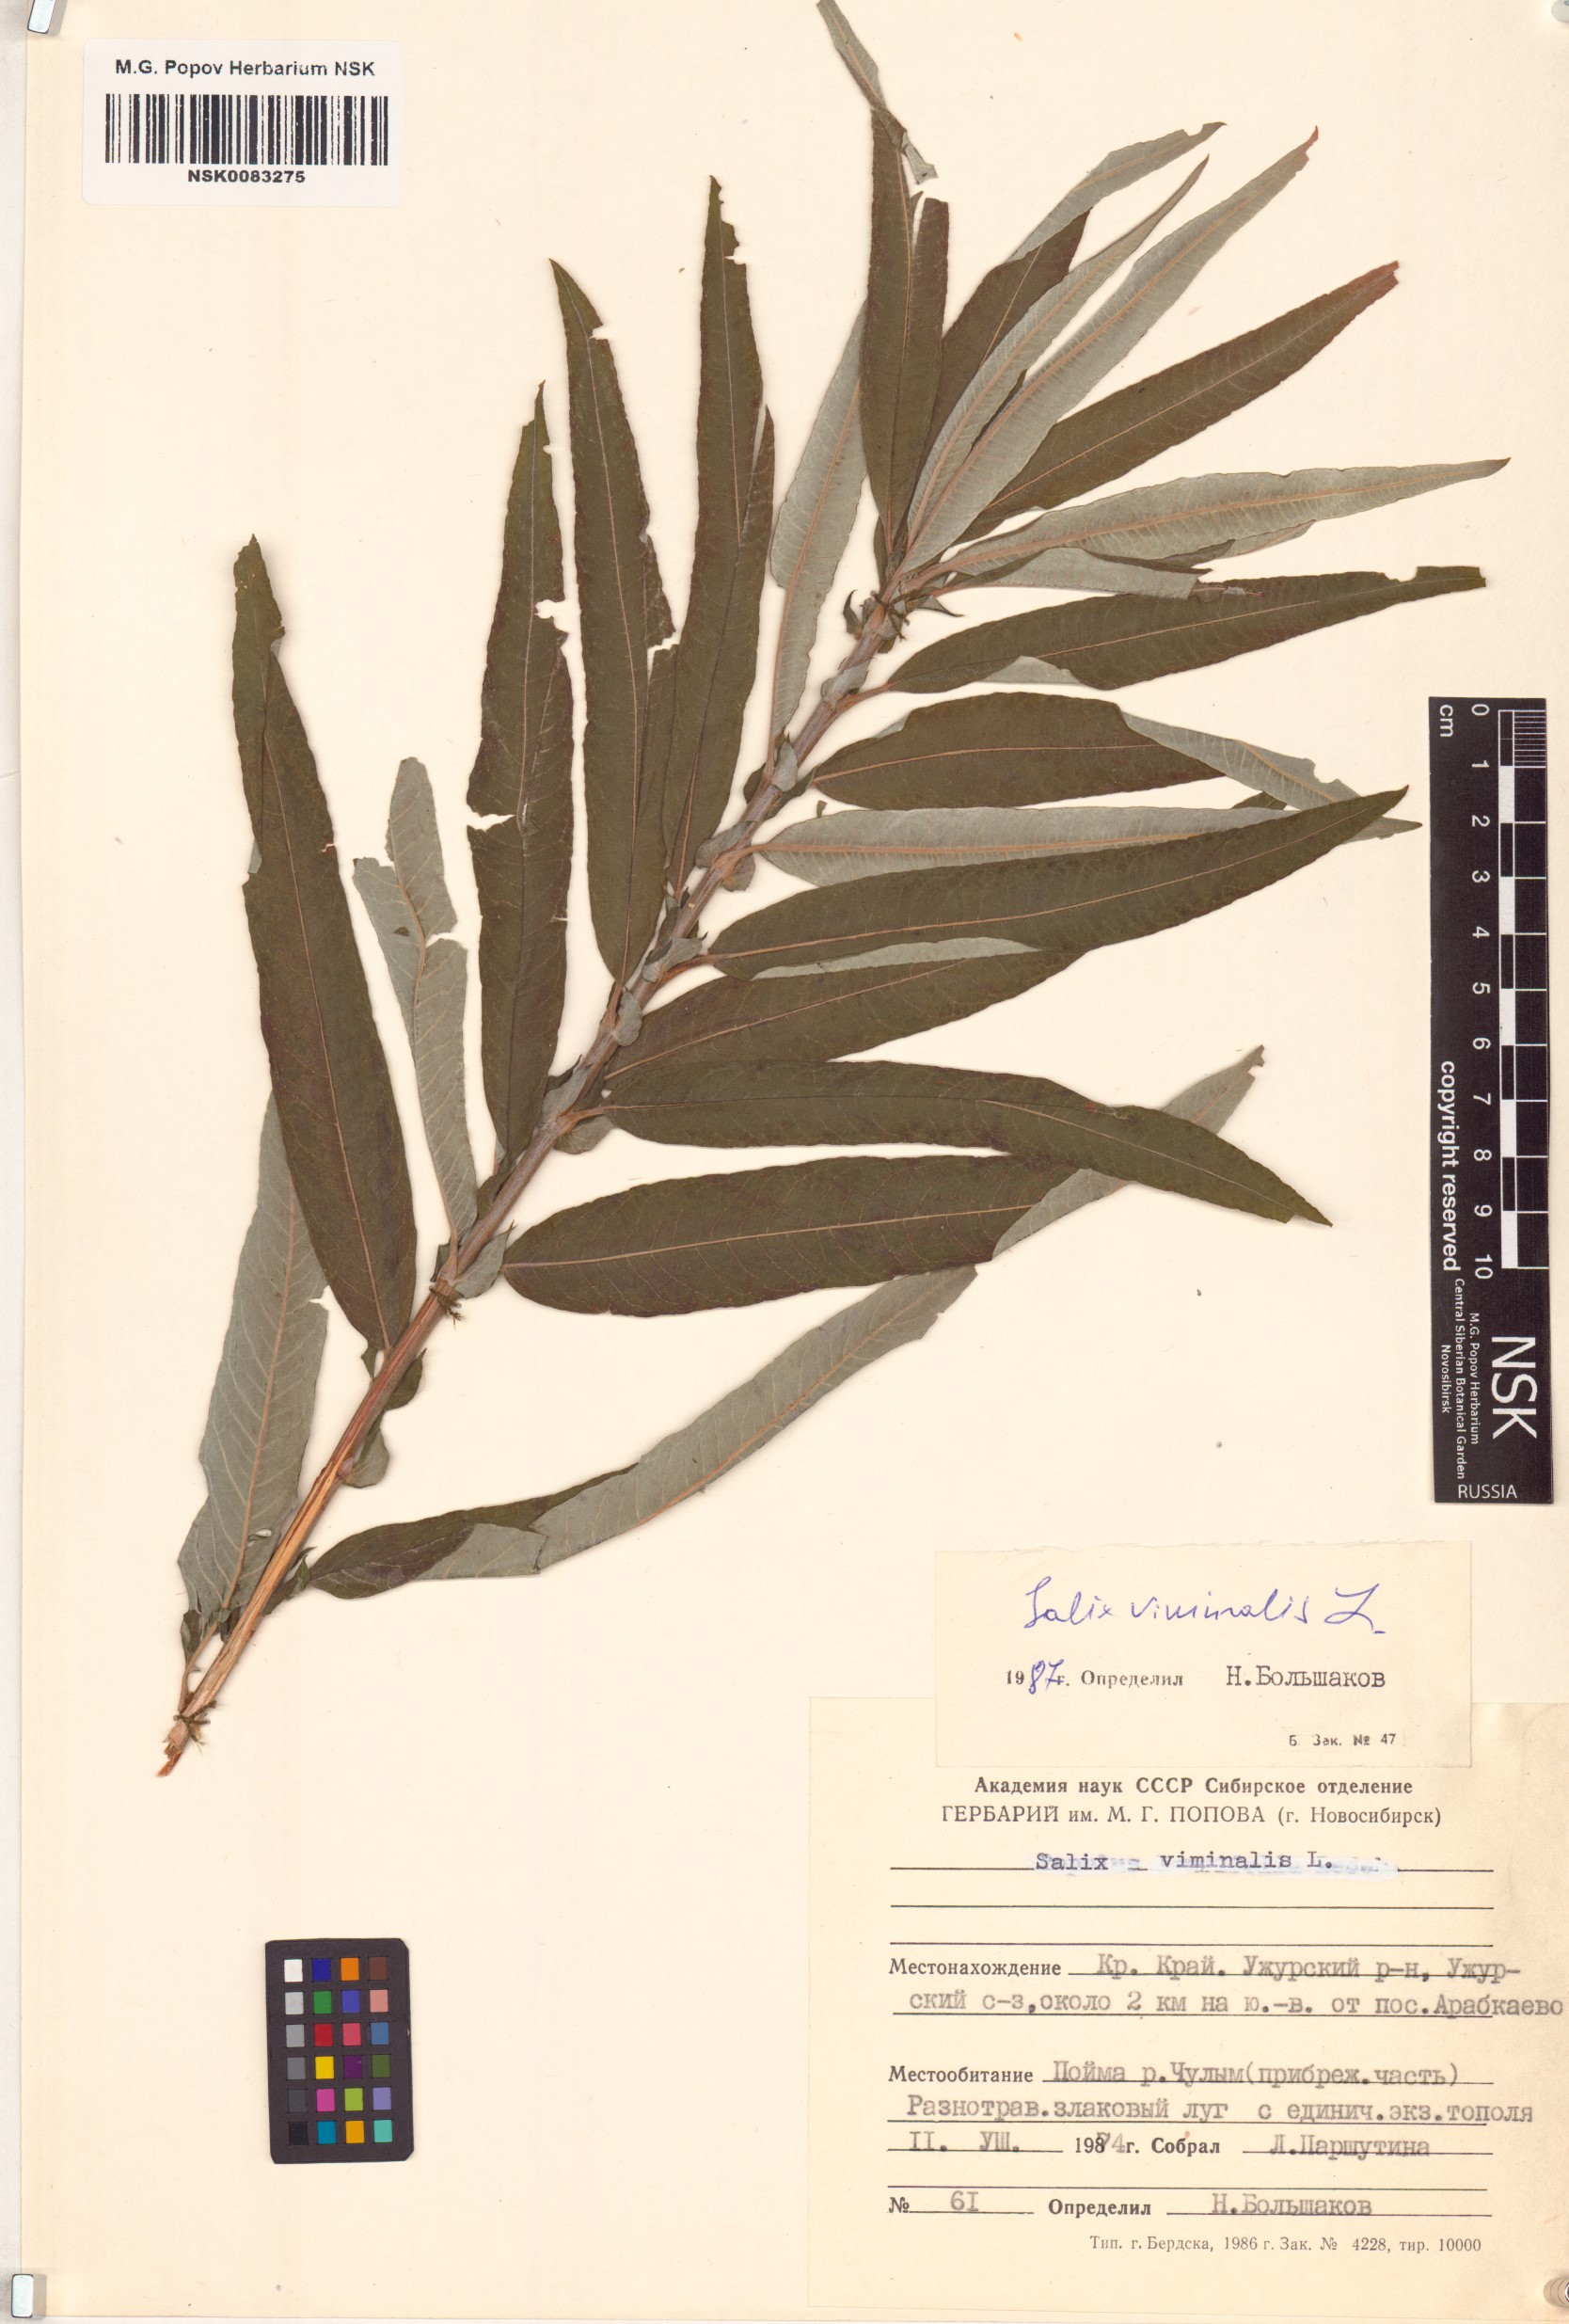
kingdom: Plantae
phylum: Tracheophyta
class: Magnoliopsida
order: Malpighiales
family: Salicaceae
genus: Salix
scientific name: Salix viminalis
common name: Osier
